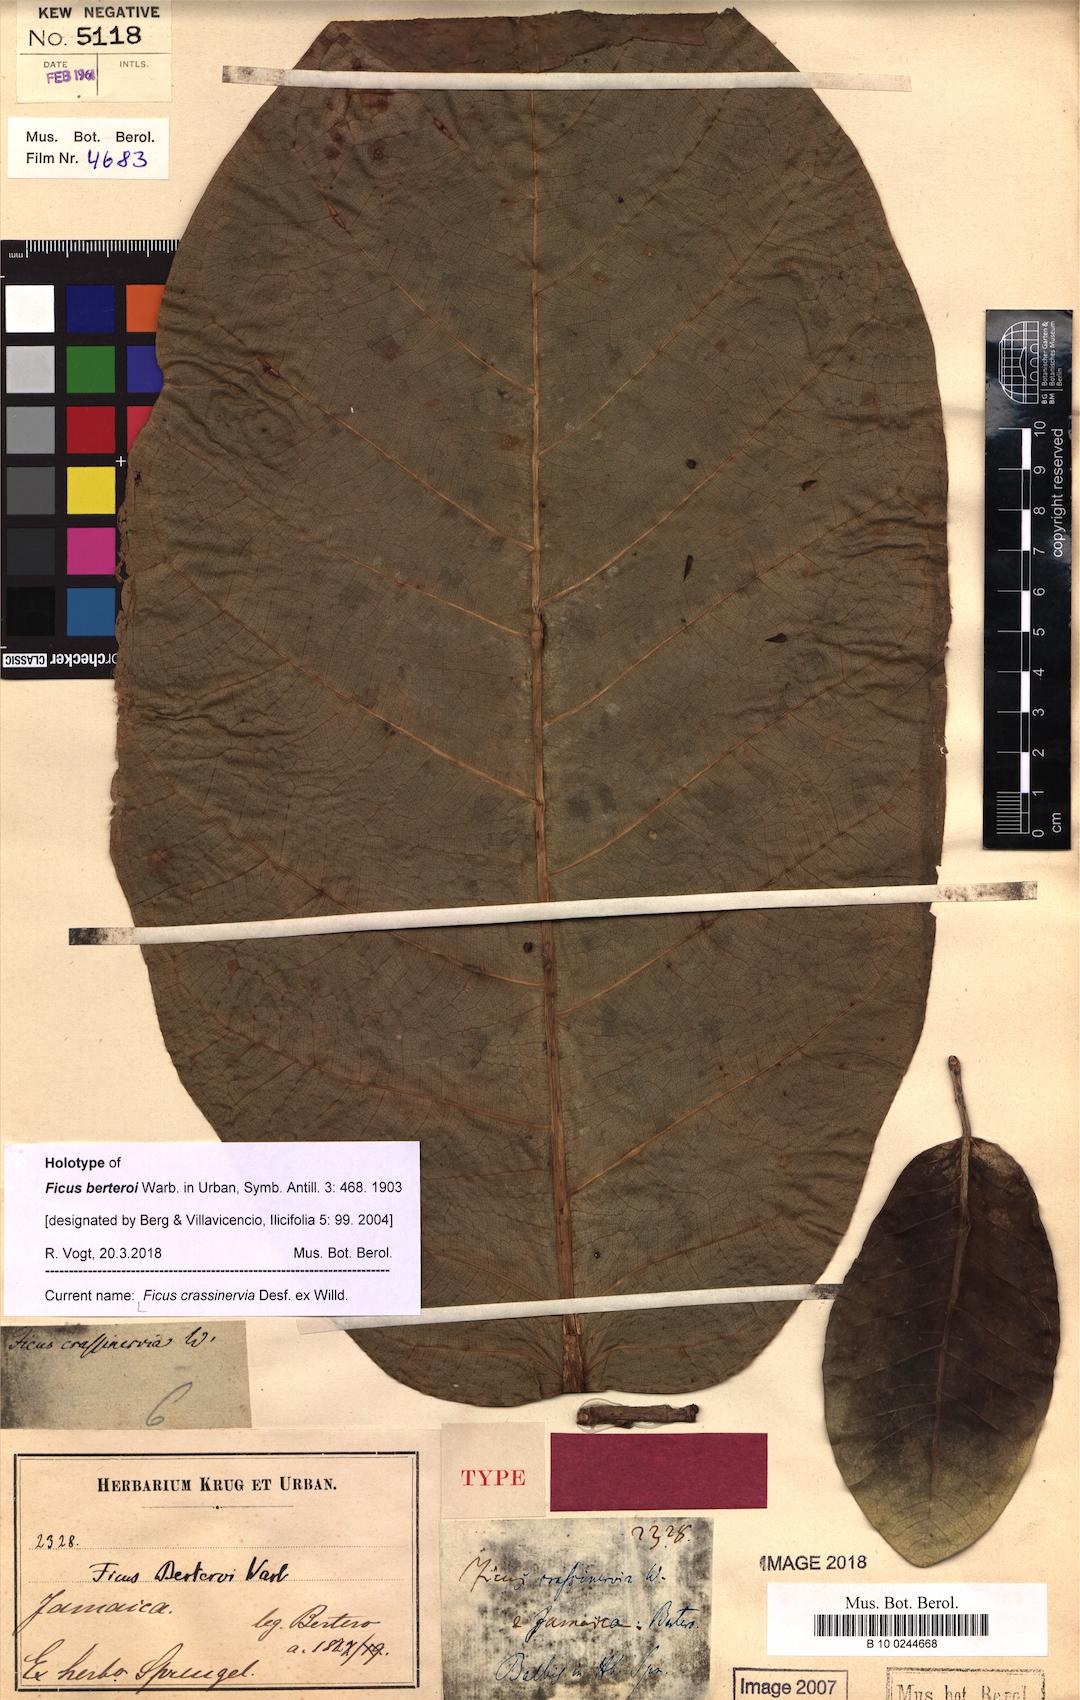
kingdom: Plantae
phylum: Tracheophyta
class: Magnoliopsida
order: Rosales
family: Moraceae
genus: Ficus
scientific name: Ficus crassinervia
